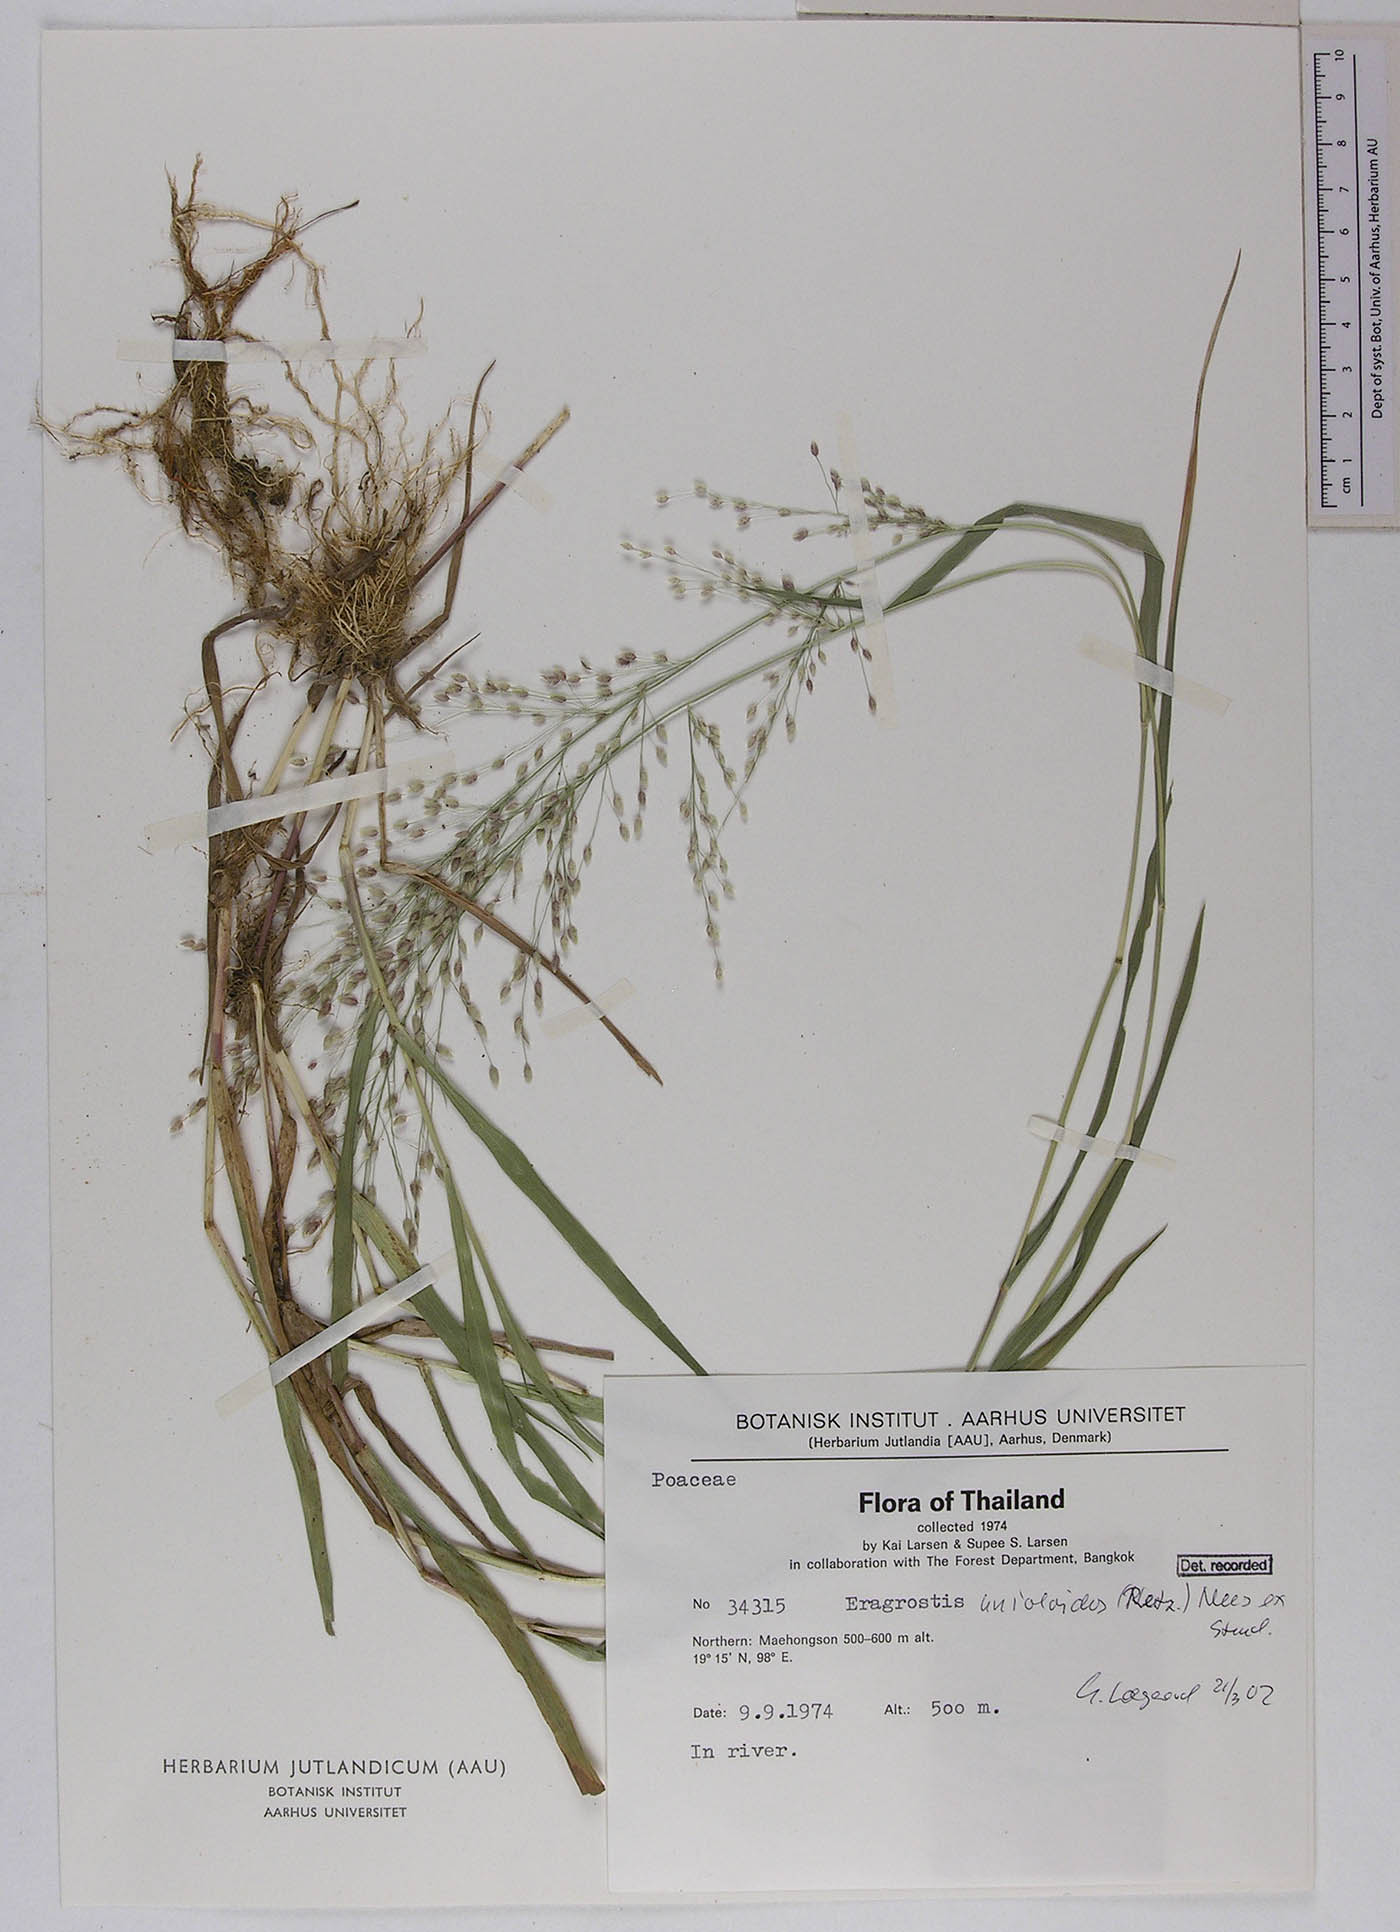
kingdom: Plantae
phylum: Tracheophyta
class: Liliopsida
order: Poales
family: Poaceae
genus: Eragrostis
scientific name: Eragrostis unioloides
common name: Chinese lovegrass
